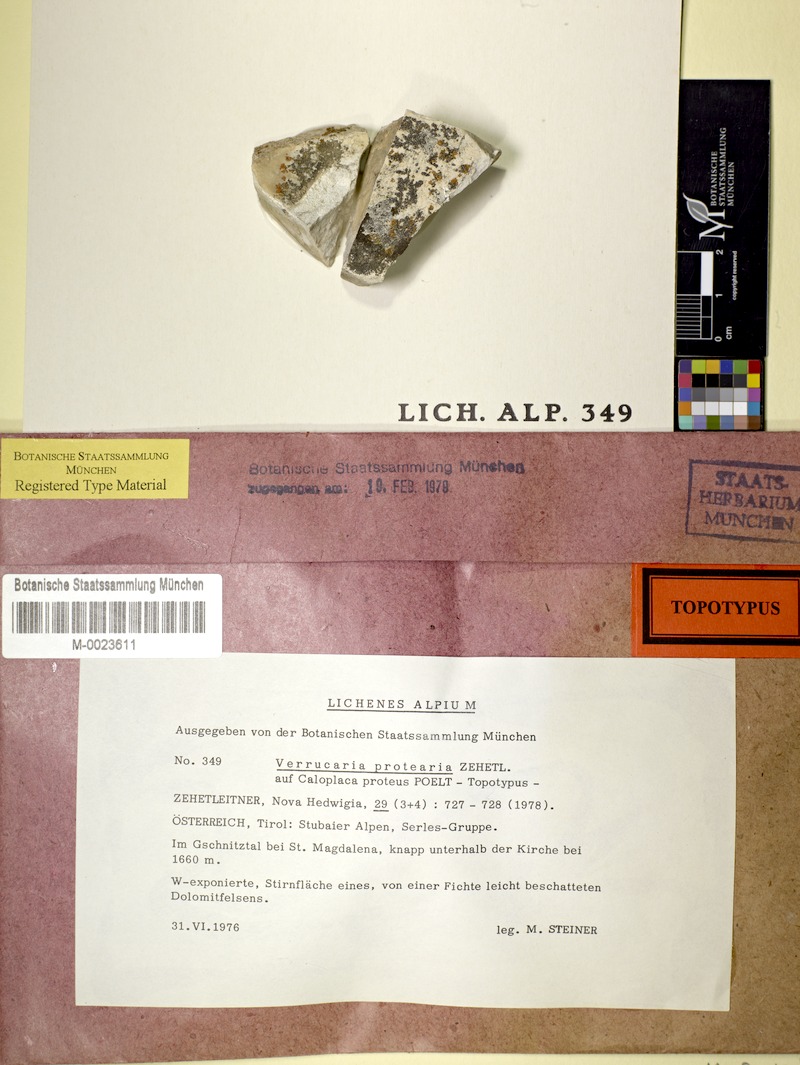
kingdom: Fungi
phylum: Ascomycota
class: Eurotiomycetes
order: Verrucariales
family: Verrucariaceae
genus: Verrucula
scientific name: Verrucula protearia
